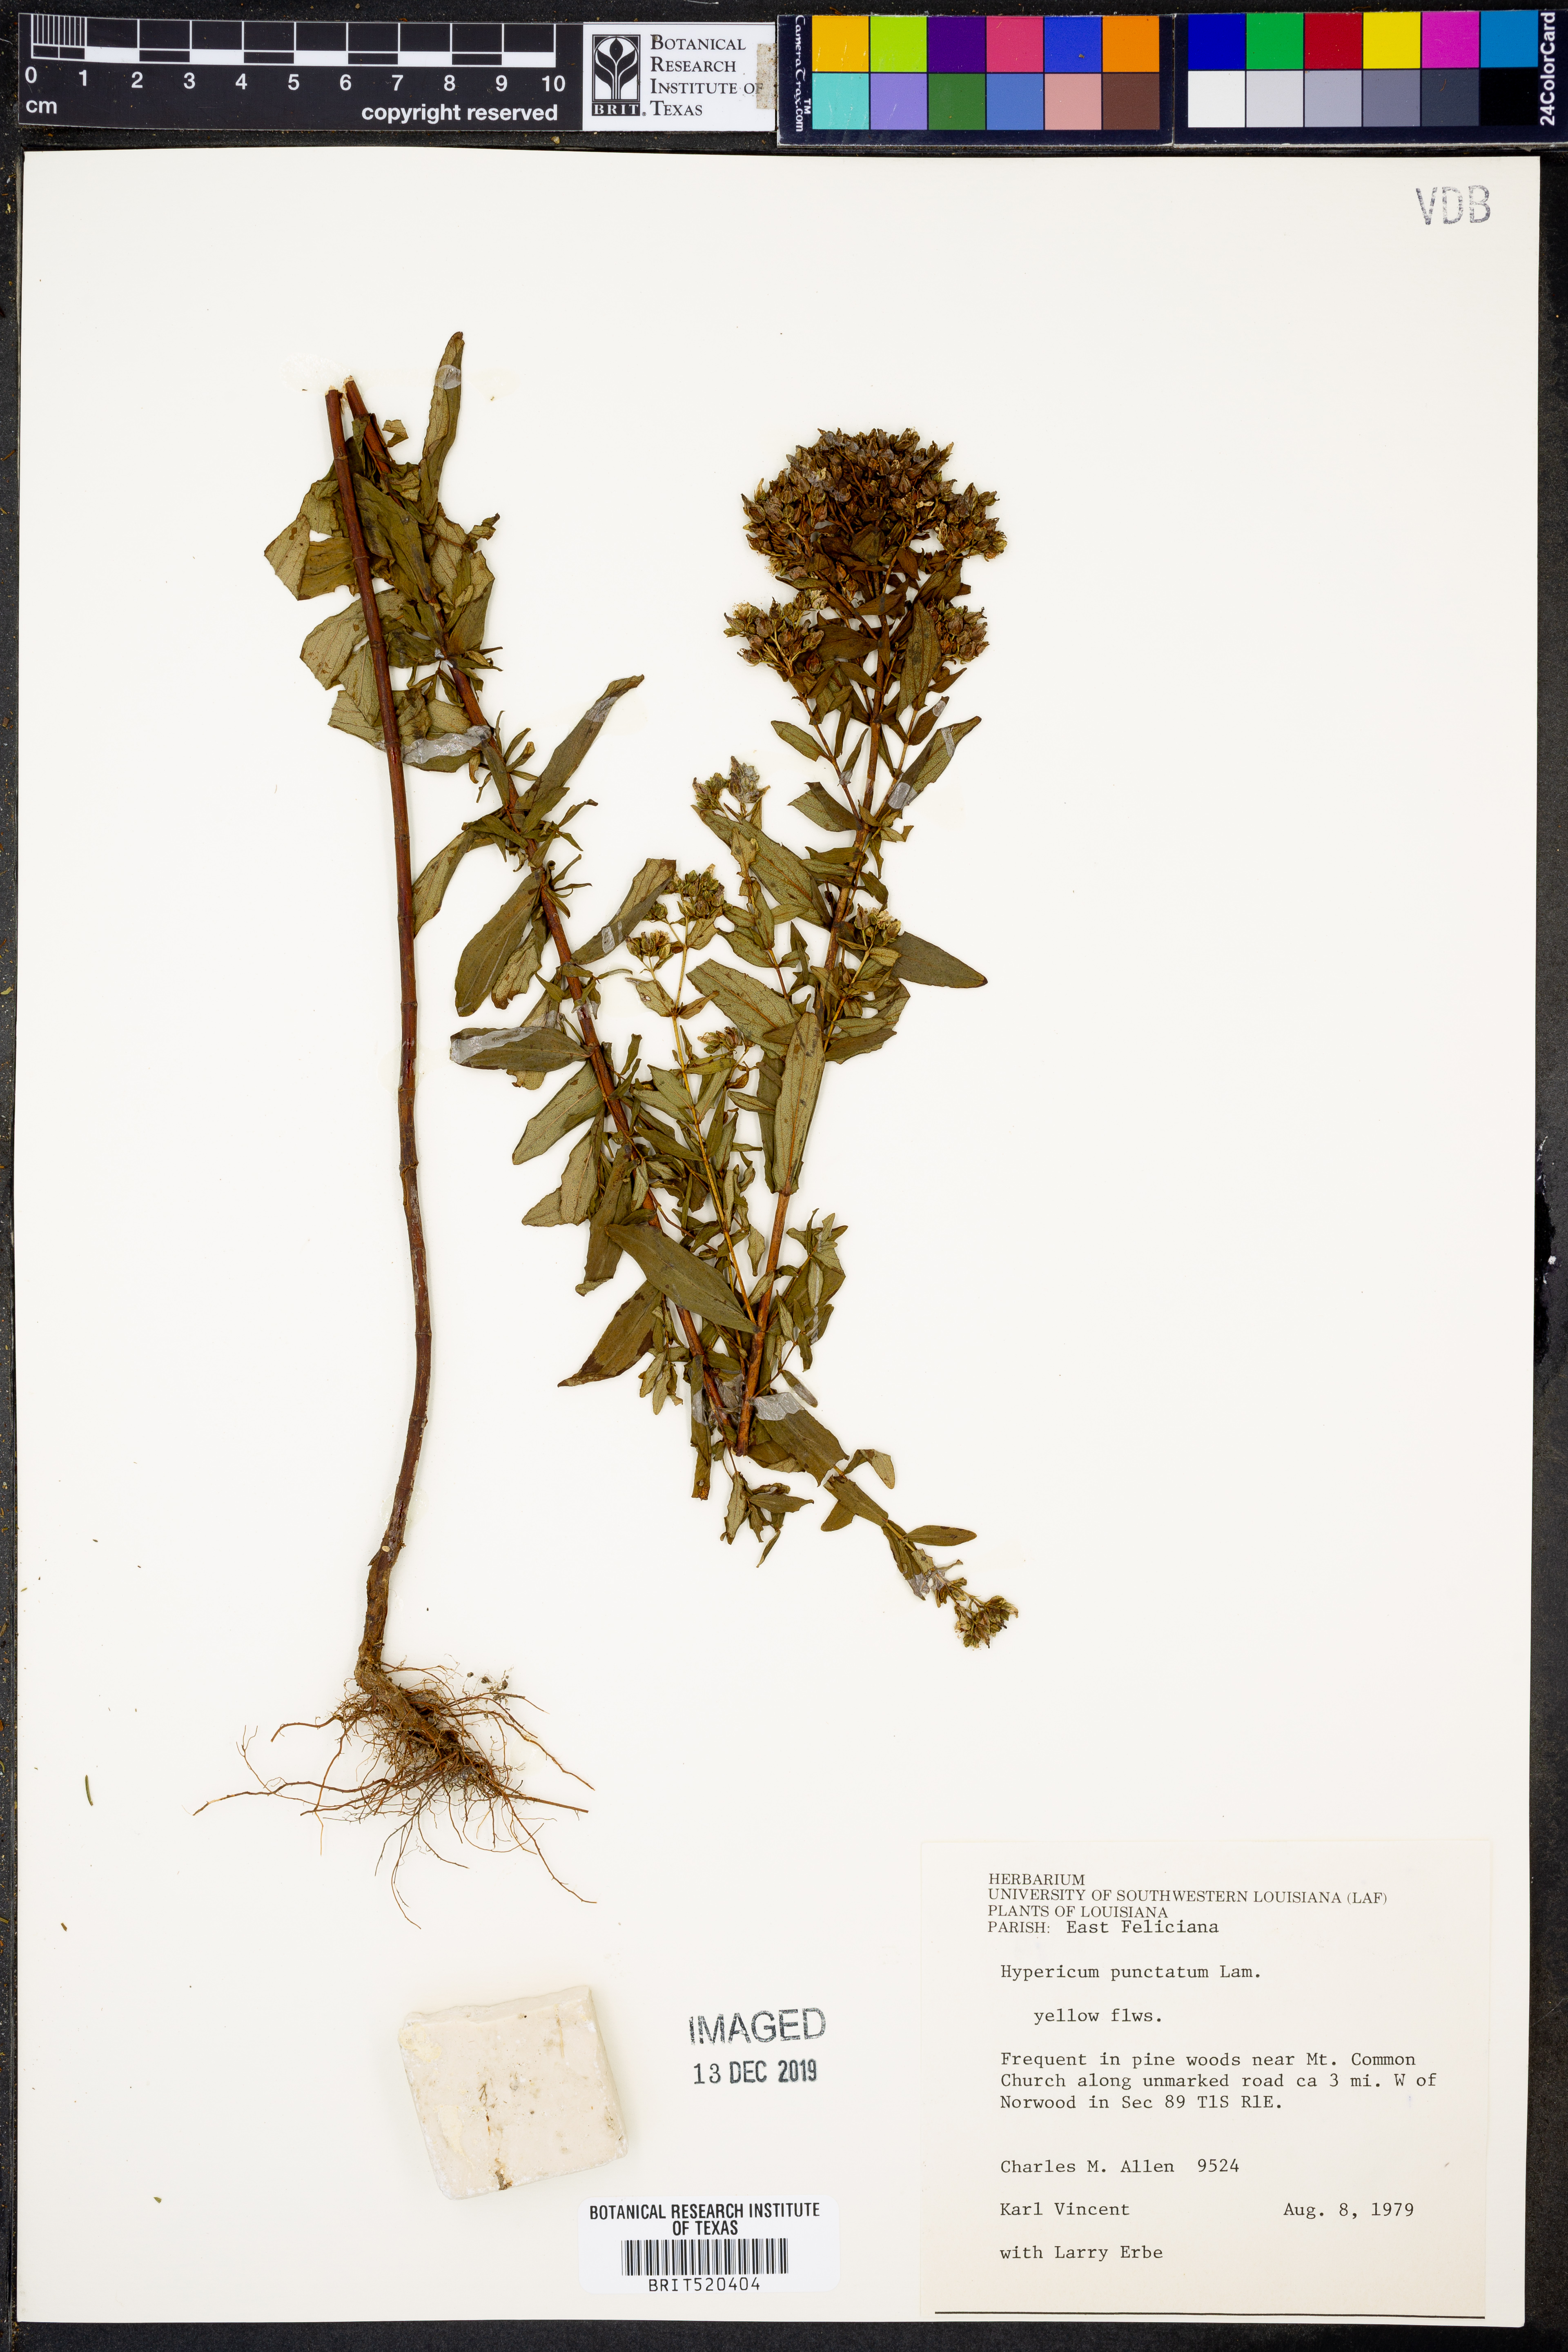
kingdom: Plantae
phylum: Tracheophyta
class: Magnoliopsida
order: Malpighiales
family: Hypericaceae
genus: Hypericum
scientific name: Hypericum punctatum
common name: Spotted st. john's-wort
